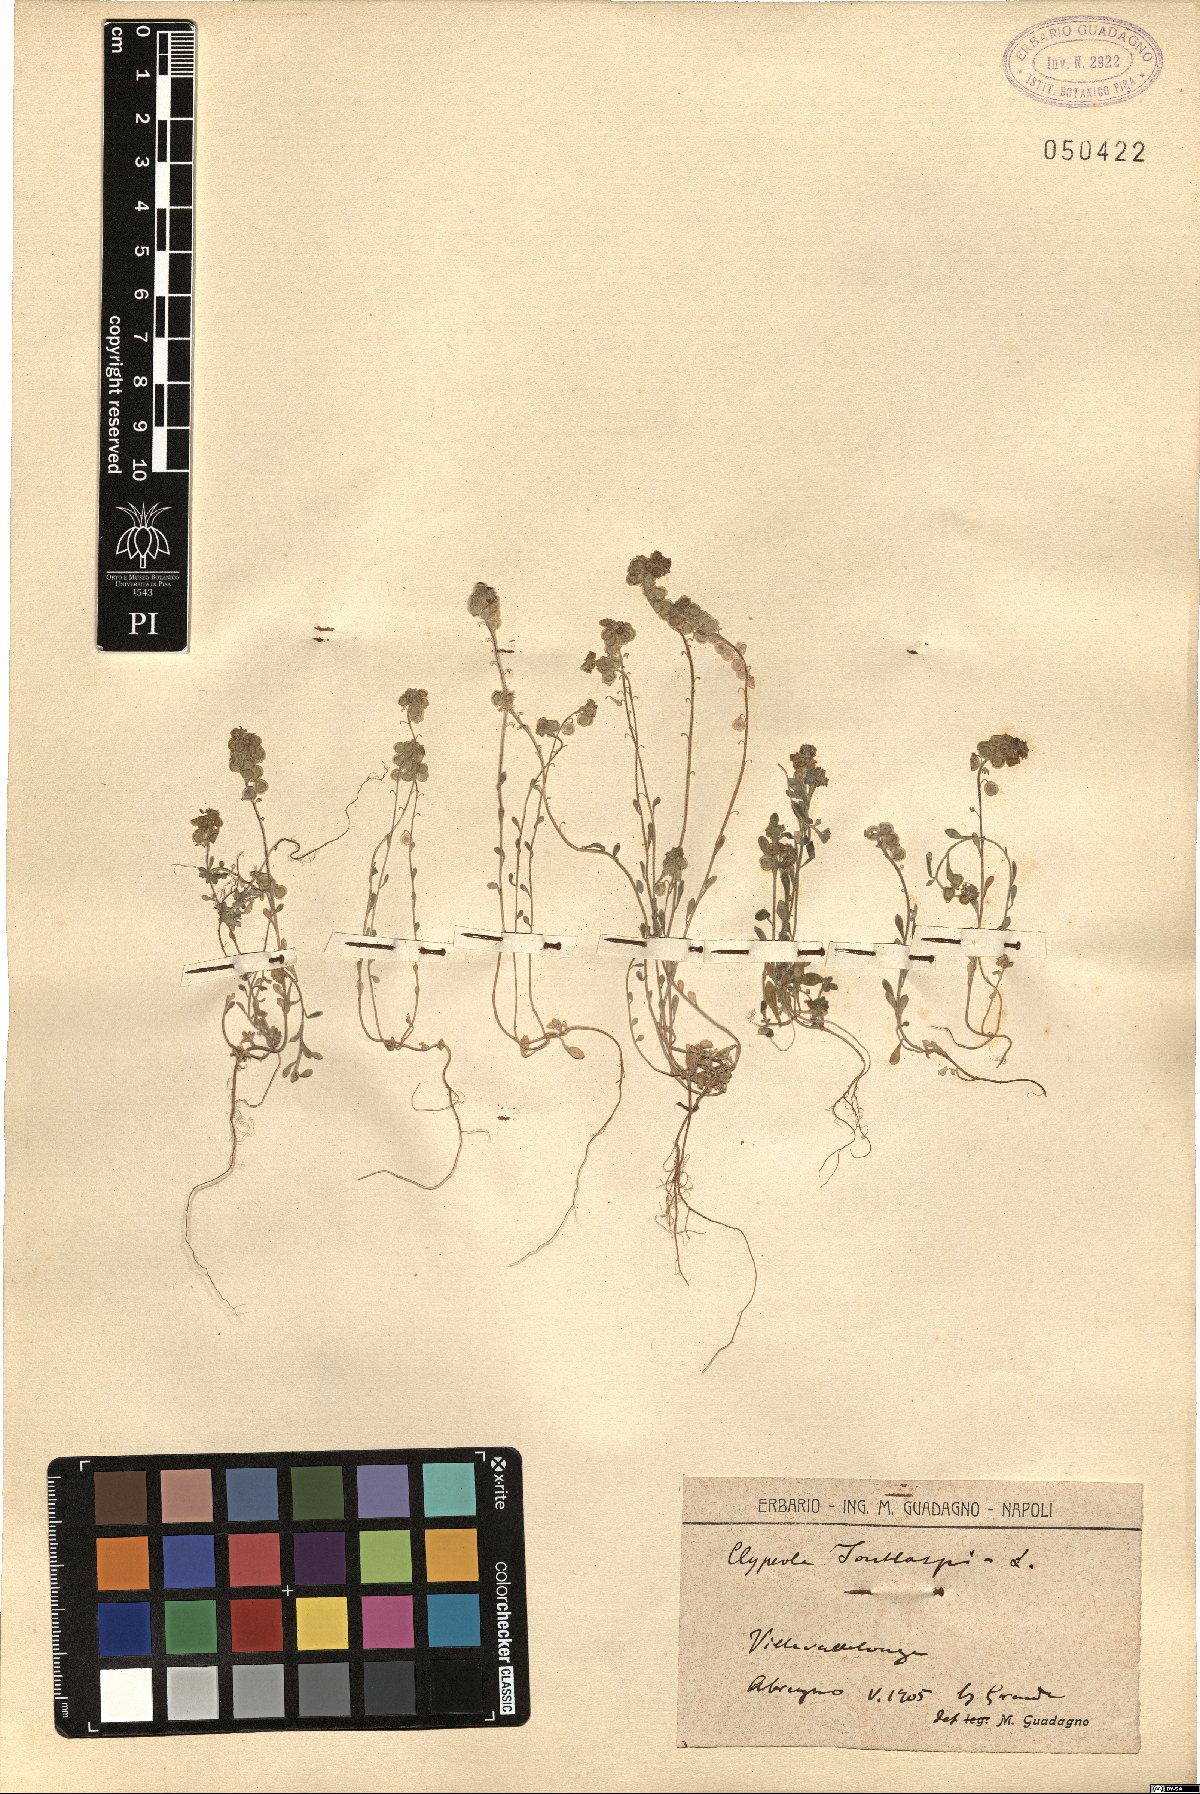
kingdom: Plantae
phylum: Tracheophyta
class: Magnoliopsida
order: Brassicales
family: Brassicaceae
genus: Clypeola
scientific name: Clypeola jonthlaspi
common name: Disk cress
